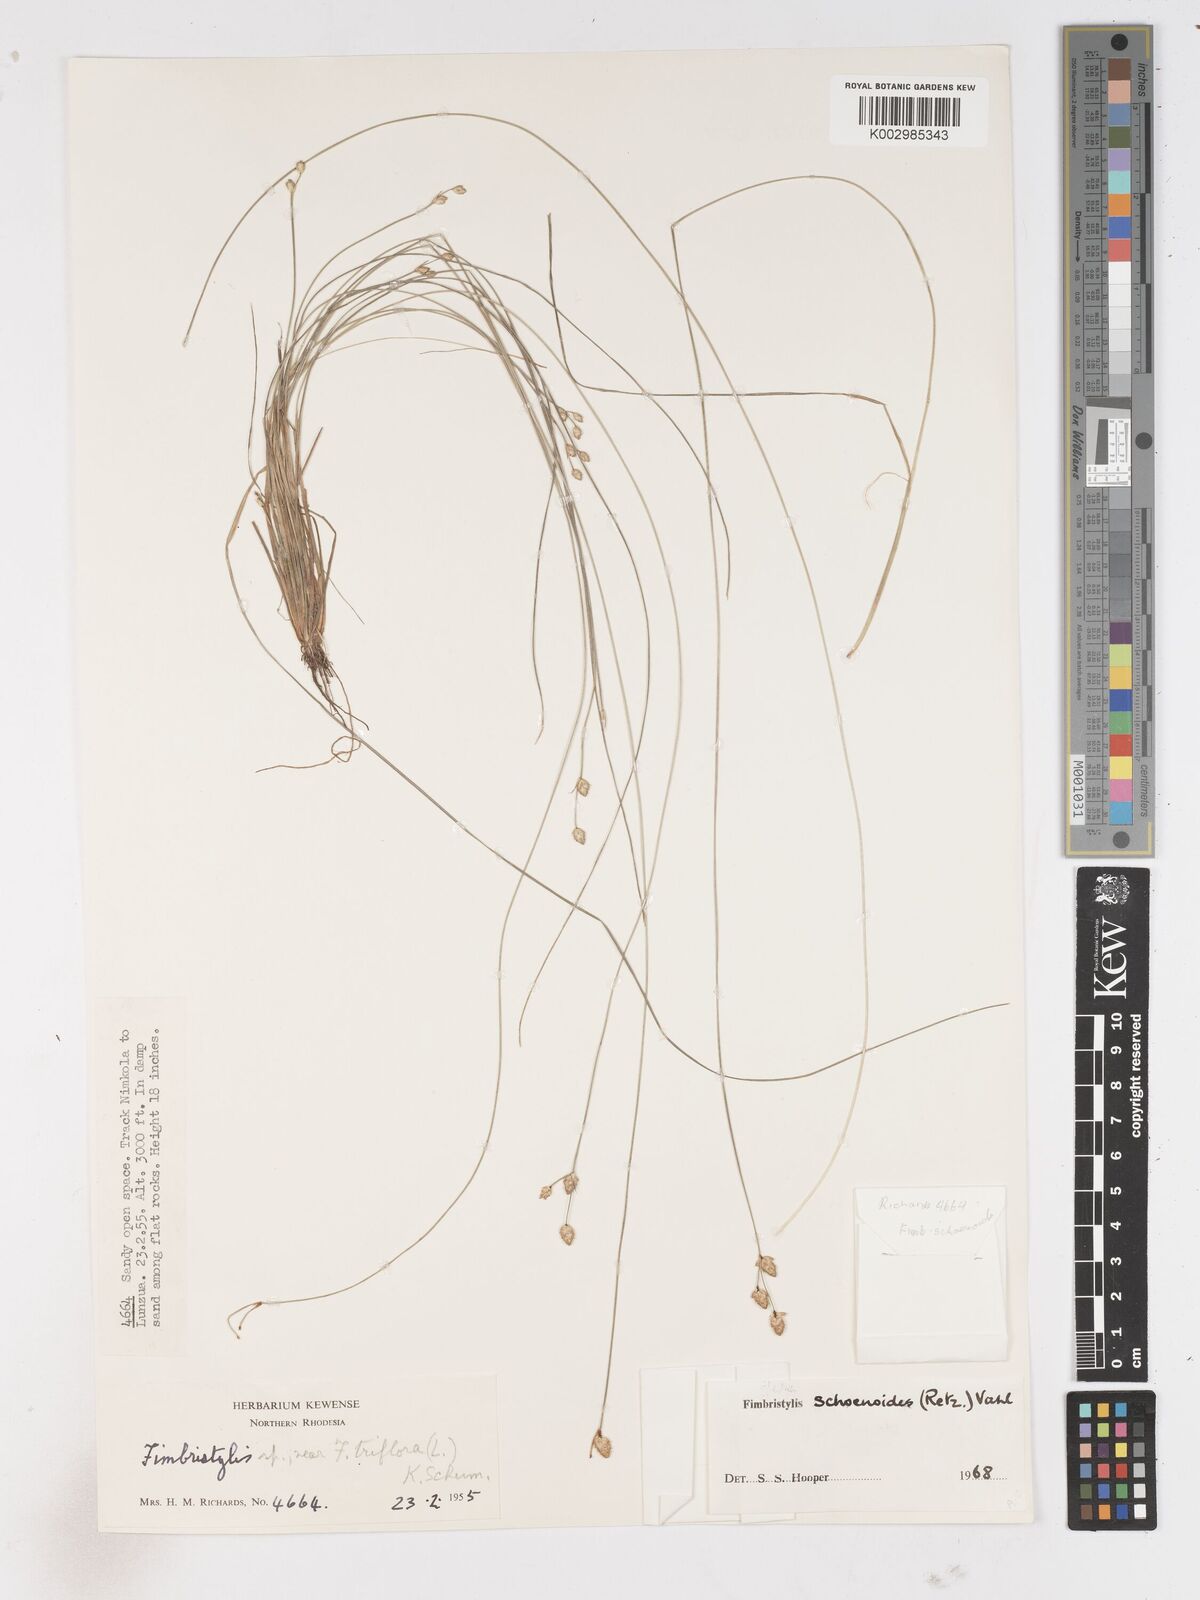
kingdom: Plantae
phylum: Tracheophyta
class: Liliopsida
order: Poales
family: Cyperaceae
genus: Fimbristylis
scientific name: Fimbristylis schoenoides
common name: Ditch fimbry
